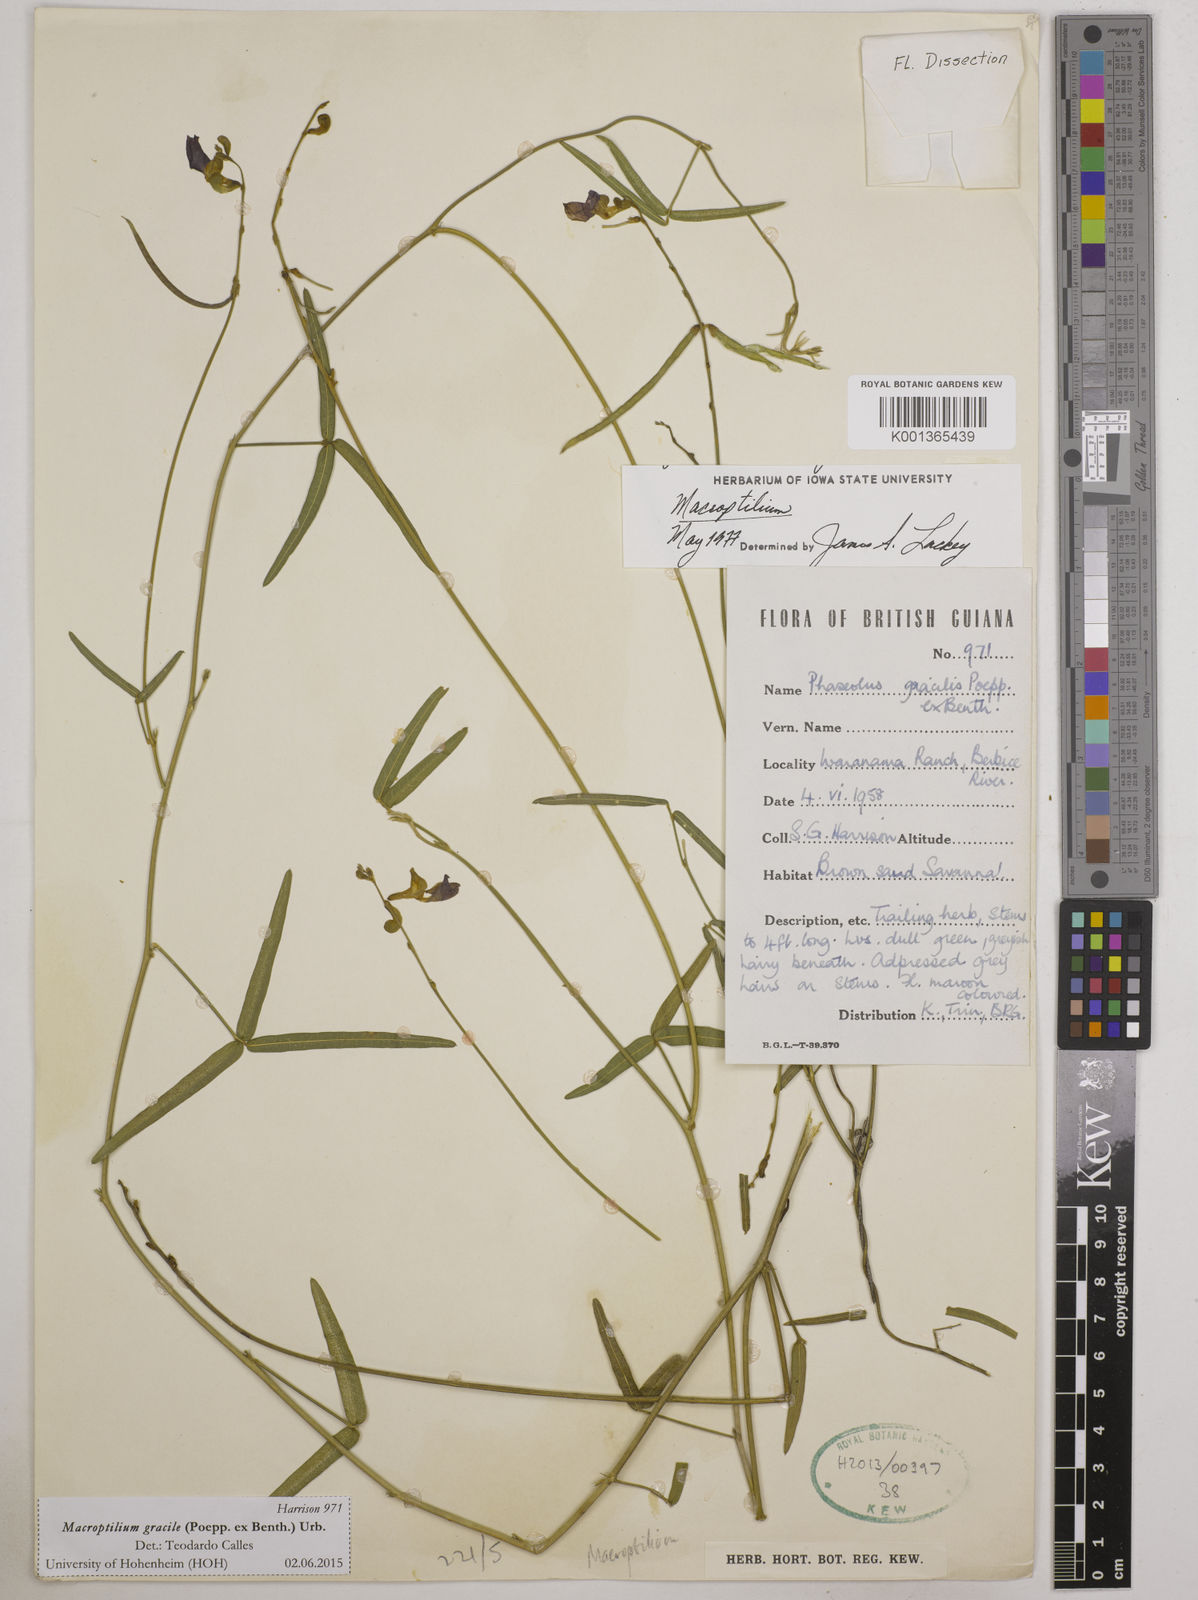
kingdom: Plantae
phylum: Tracheophyta
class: Magnoliopsida
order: Fabales
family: Fabaceae
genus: Macroptilium
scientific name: Macroptilium gracile
